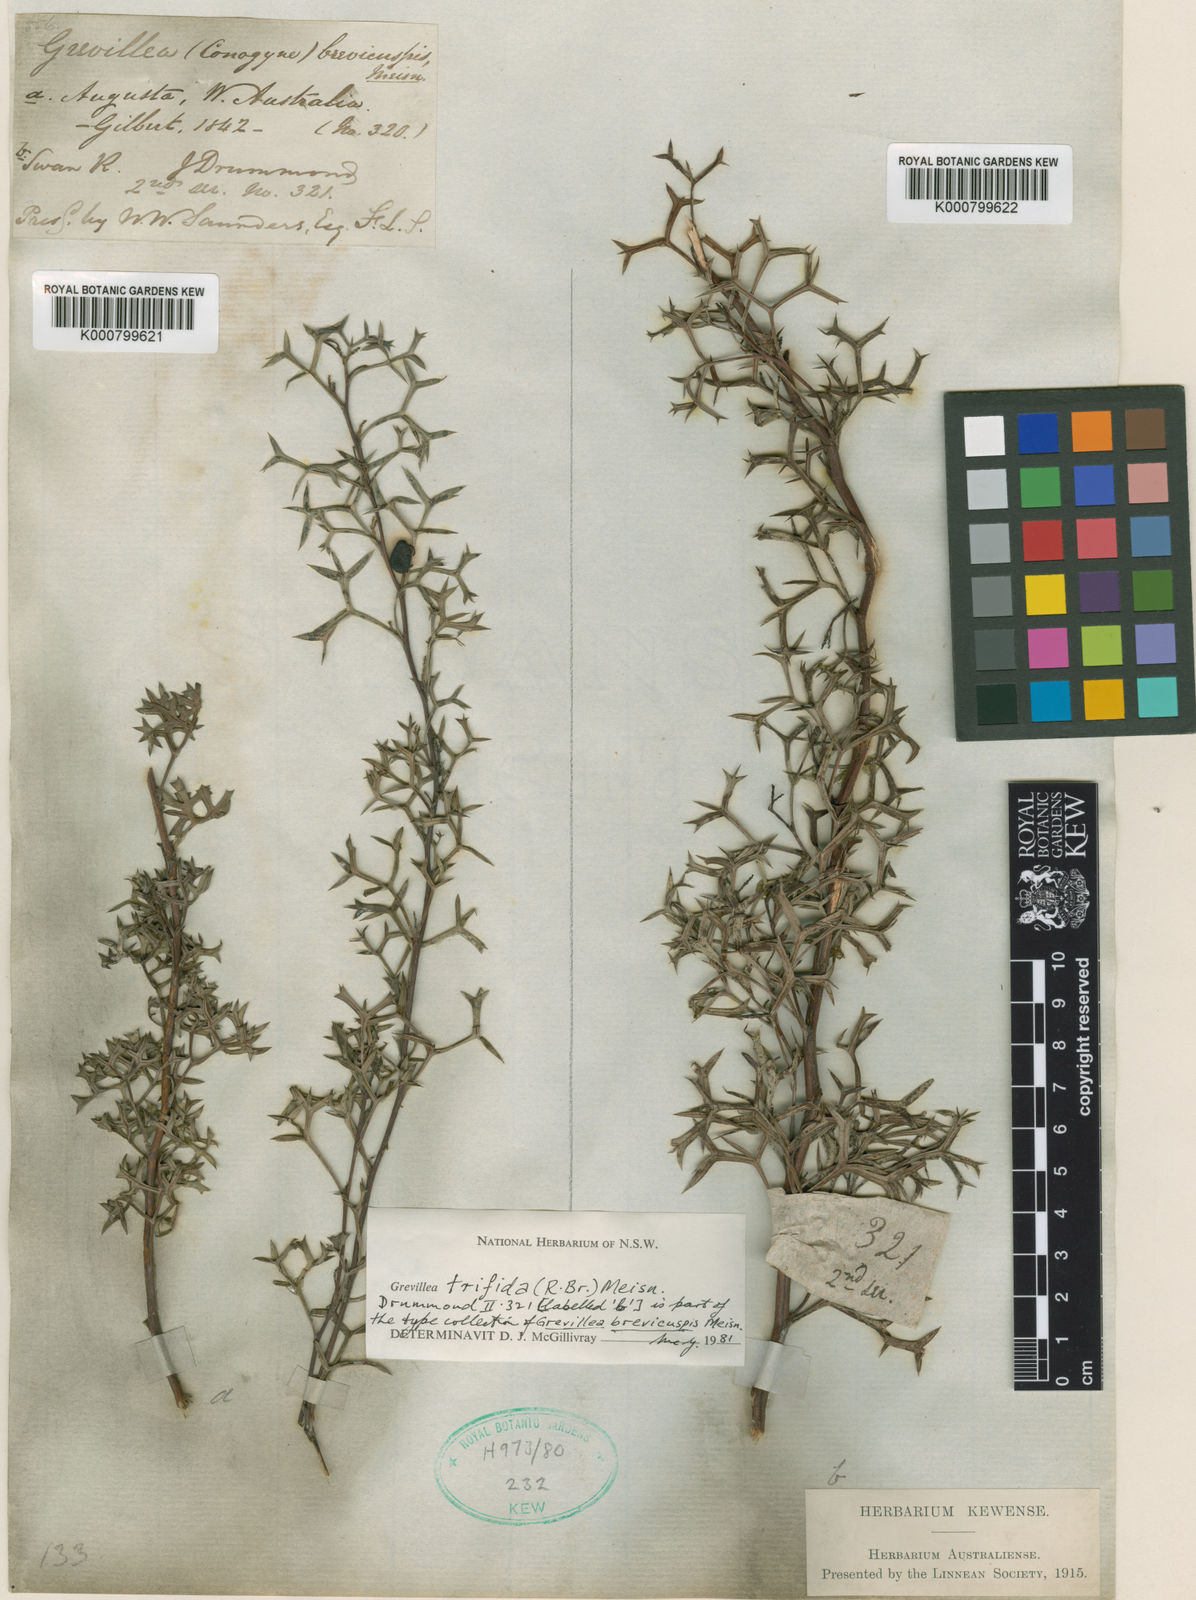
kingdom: Plantae
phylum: Tracheophyta
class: Magnoliopsida
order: Proteales
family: Proteaceae
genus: Grevillea
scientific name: Grevillea trifida
